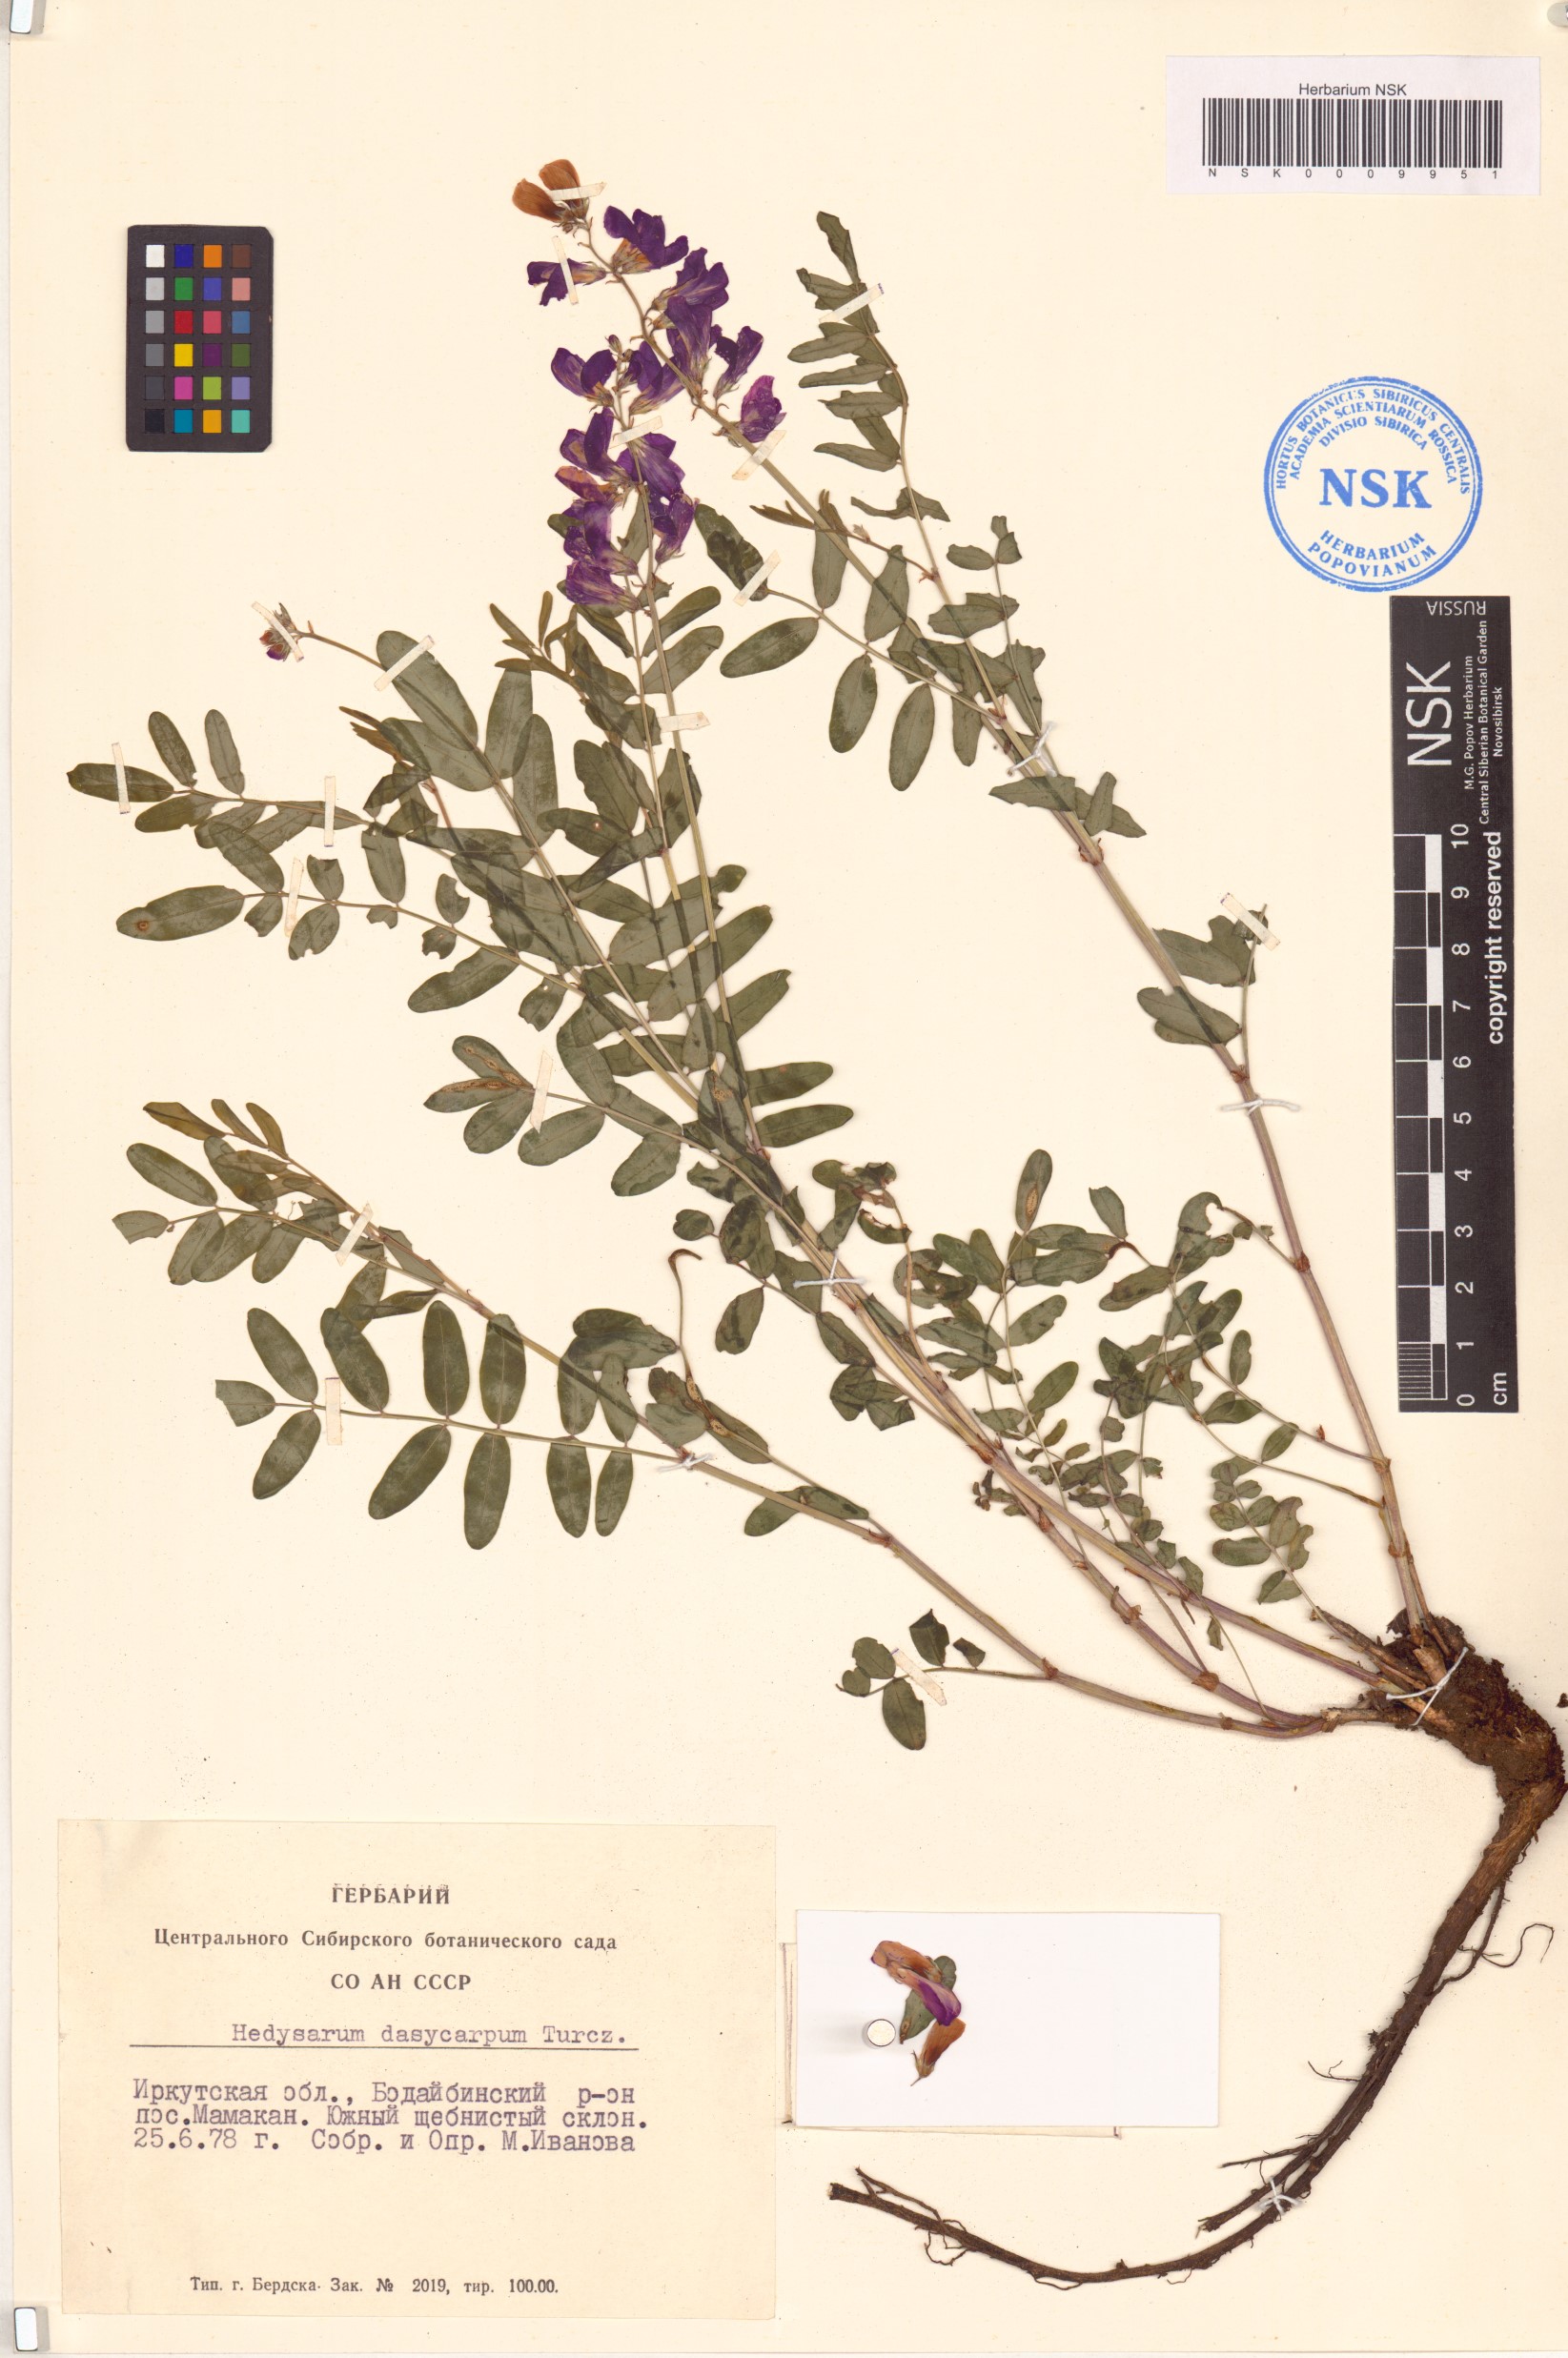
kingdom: Plantae
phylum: Tracheophyta
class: Magnoliopsida
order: Fabales
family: Fabaceae
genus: Hedysarum
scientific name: Hedysarum dasycarpum
